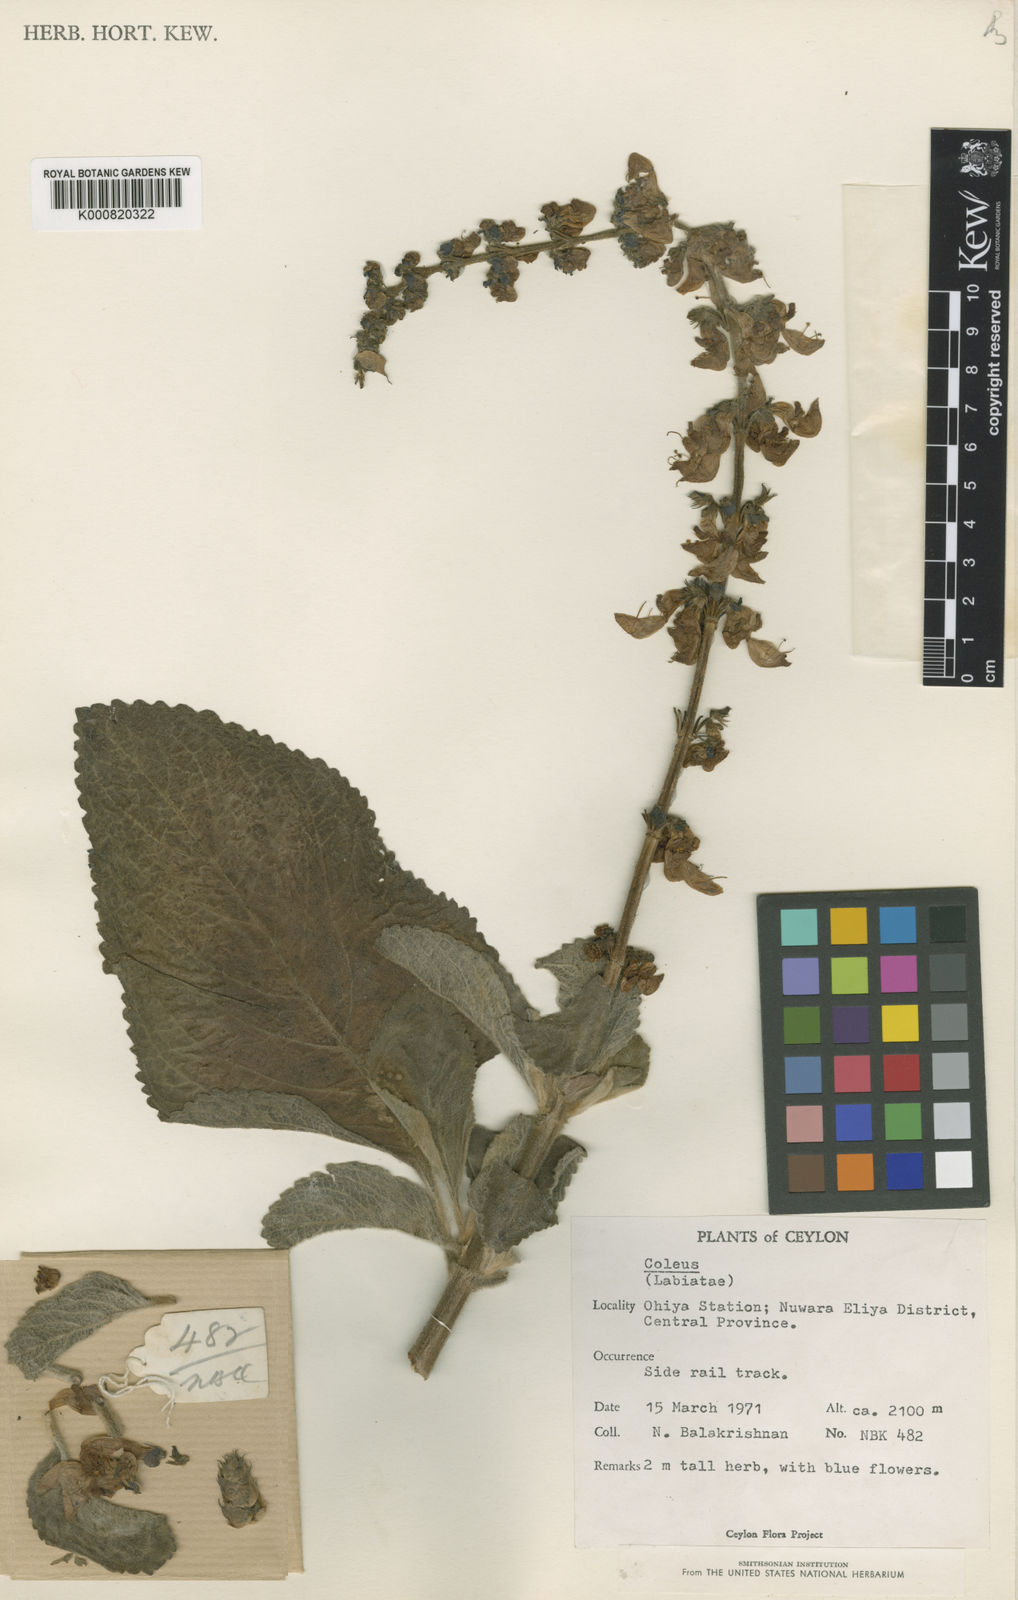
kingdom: Plantae
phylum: Tracheophyta
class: Magnoliopsida
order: Lamiales
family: Lamiaceae
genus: Coleus
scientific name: Coleus barbatus
